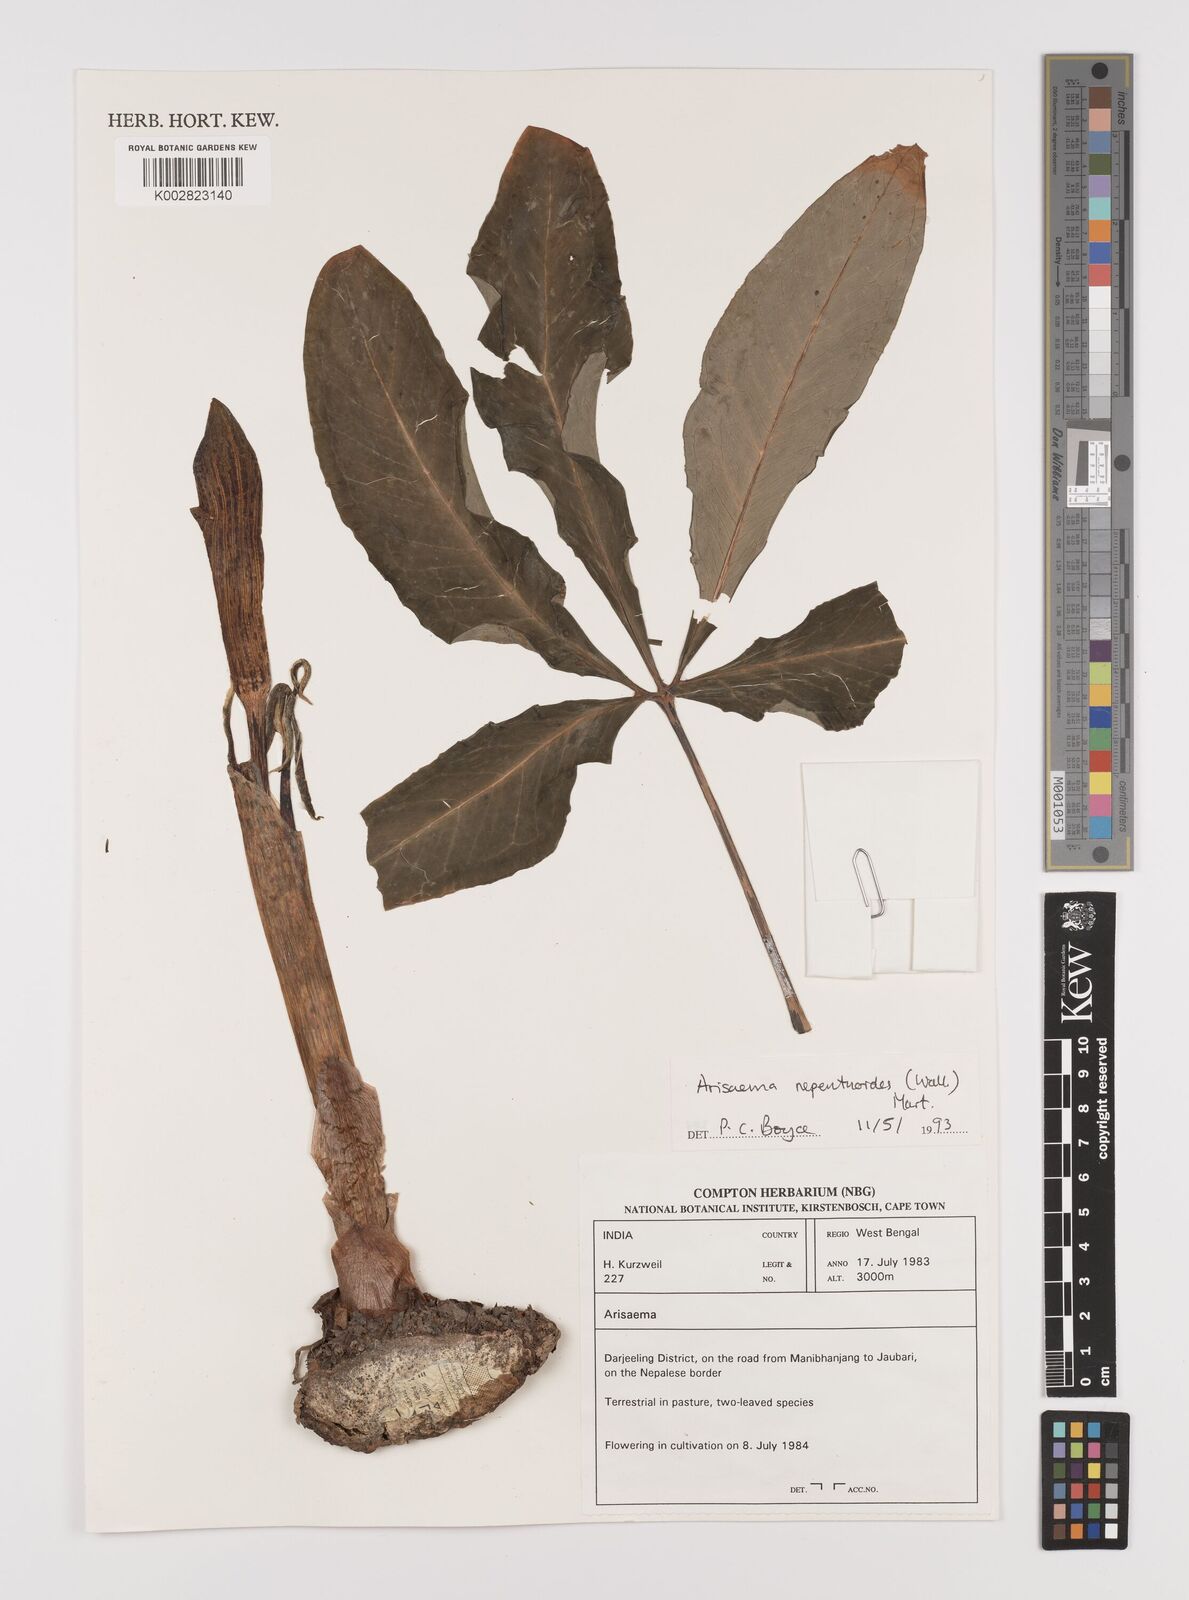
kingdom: Plantae
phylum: Tracheophyta
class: Liliopsida
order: Alismatales
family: Araceae
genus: Arisaema
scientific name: Arisaema nepenthoides
